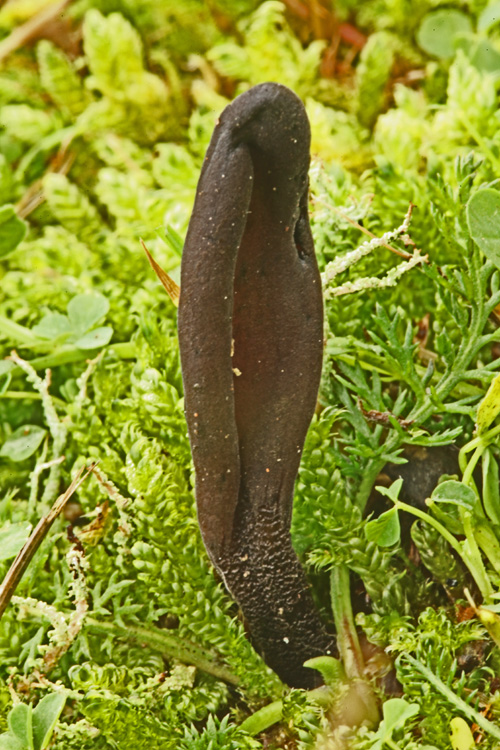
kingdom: Fungi
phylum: Ascomycota
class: Geoglossomycetes
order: Geoglossales
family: Geoglossaceae
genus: Hemileucoglossum
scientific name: Hemileucoglossum elongatum
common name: småsporet jordtunge
